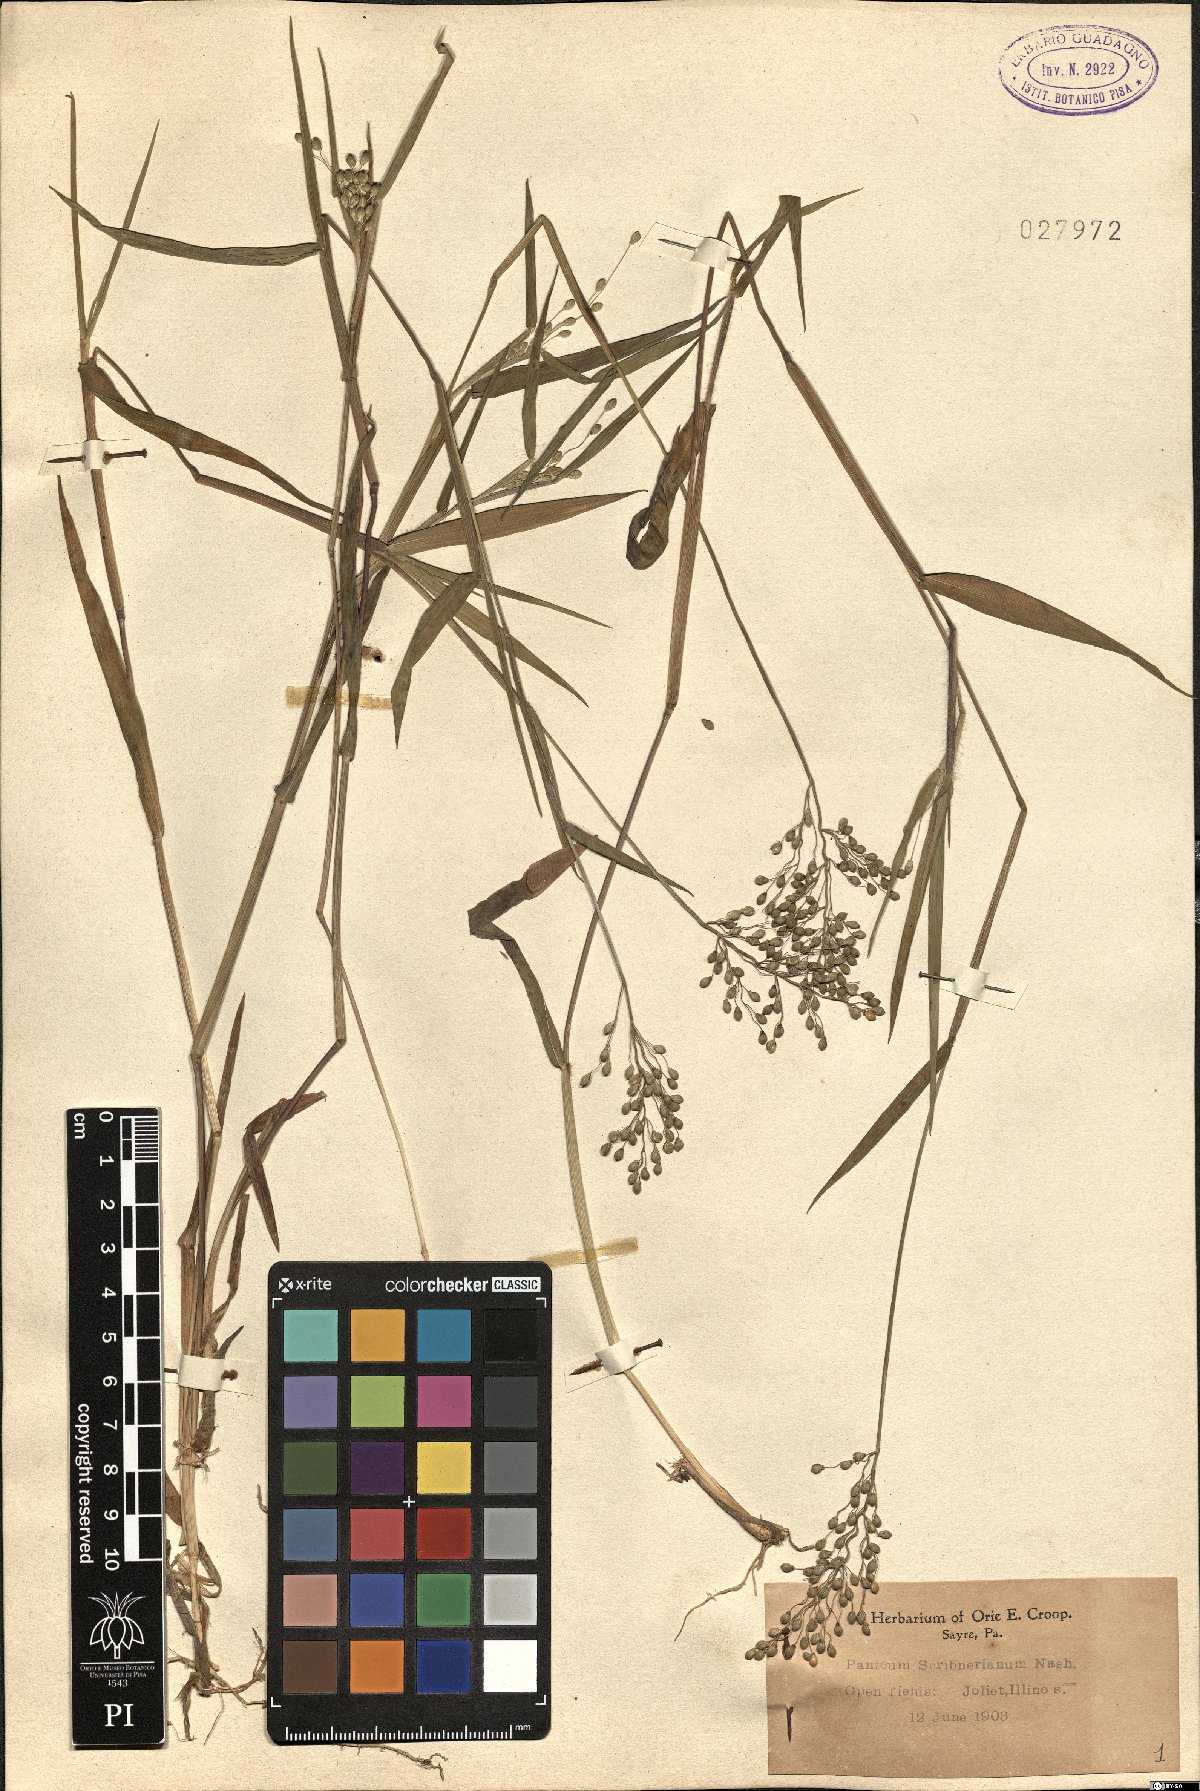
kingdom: Plantae
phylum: Tracheophyta
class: Liliopsida
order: Poales
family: Poaceae
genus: Dichanthelium
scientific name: Dichanthelium scribnerianum
